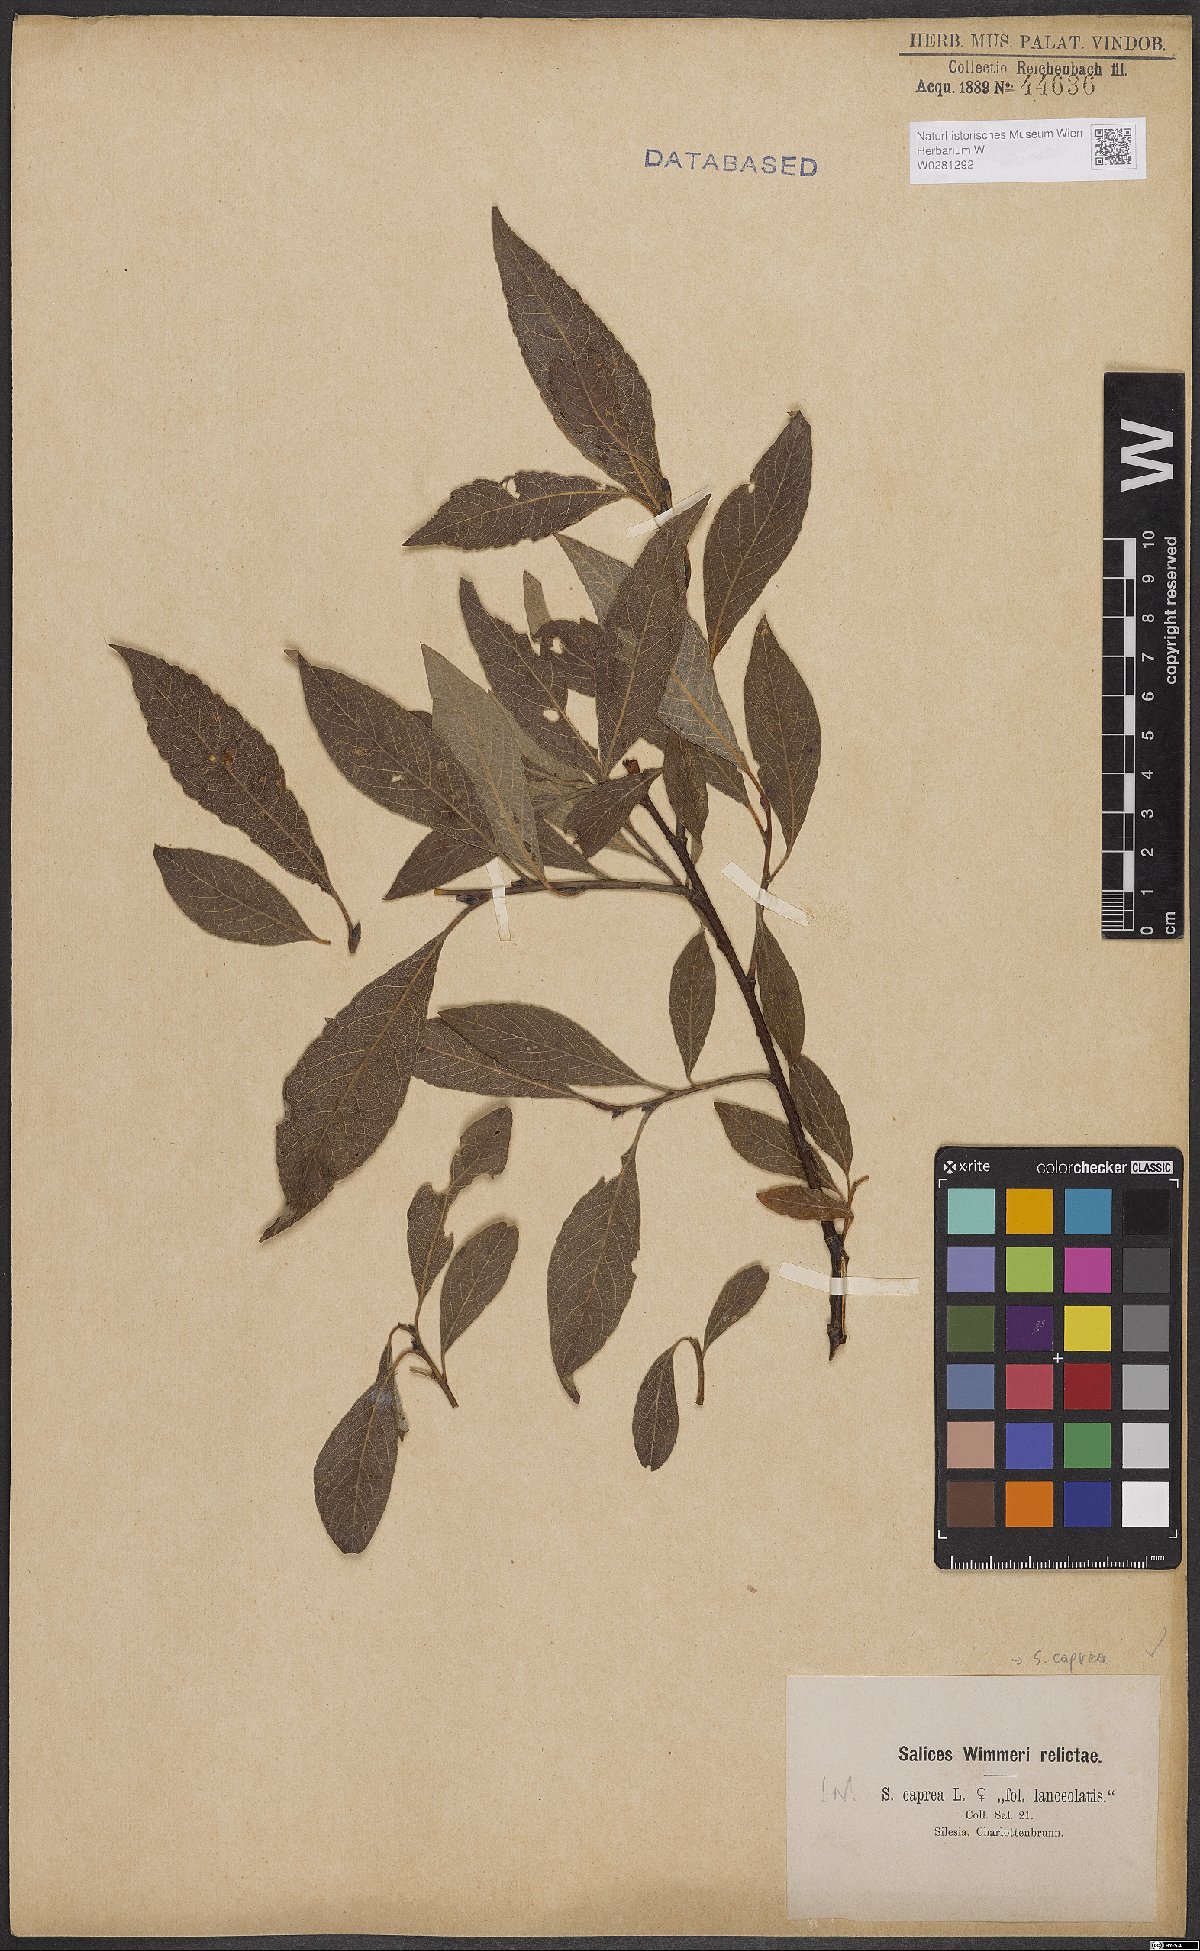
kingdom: Plantae
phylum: Tracheophyta
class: Magnoliopsida
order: Malpighiales
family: Salicaceae
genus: Salix
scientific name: Salix caprea
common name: Goat willow
